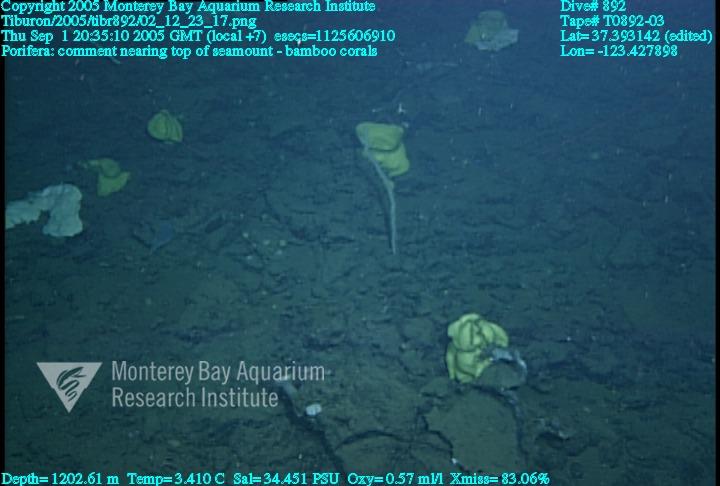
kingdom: Animalia
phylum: Porifera
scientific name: Porifera
